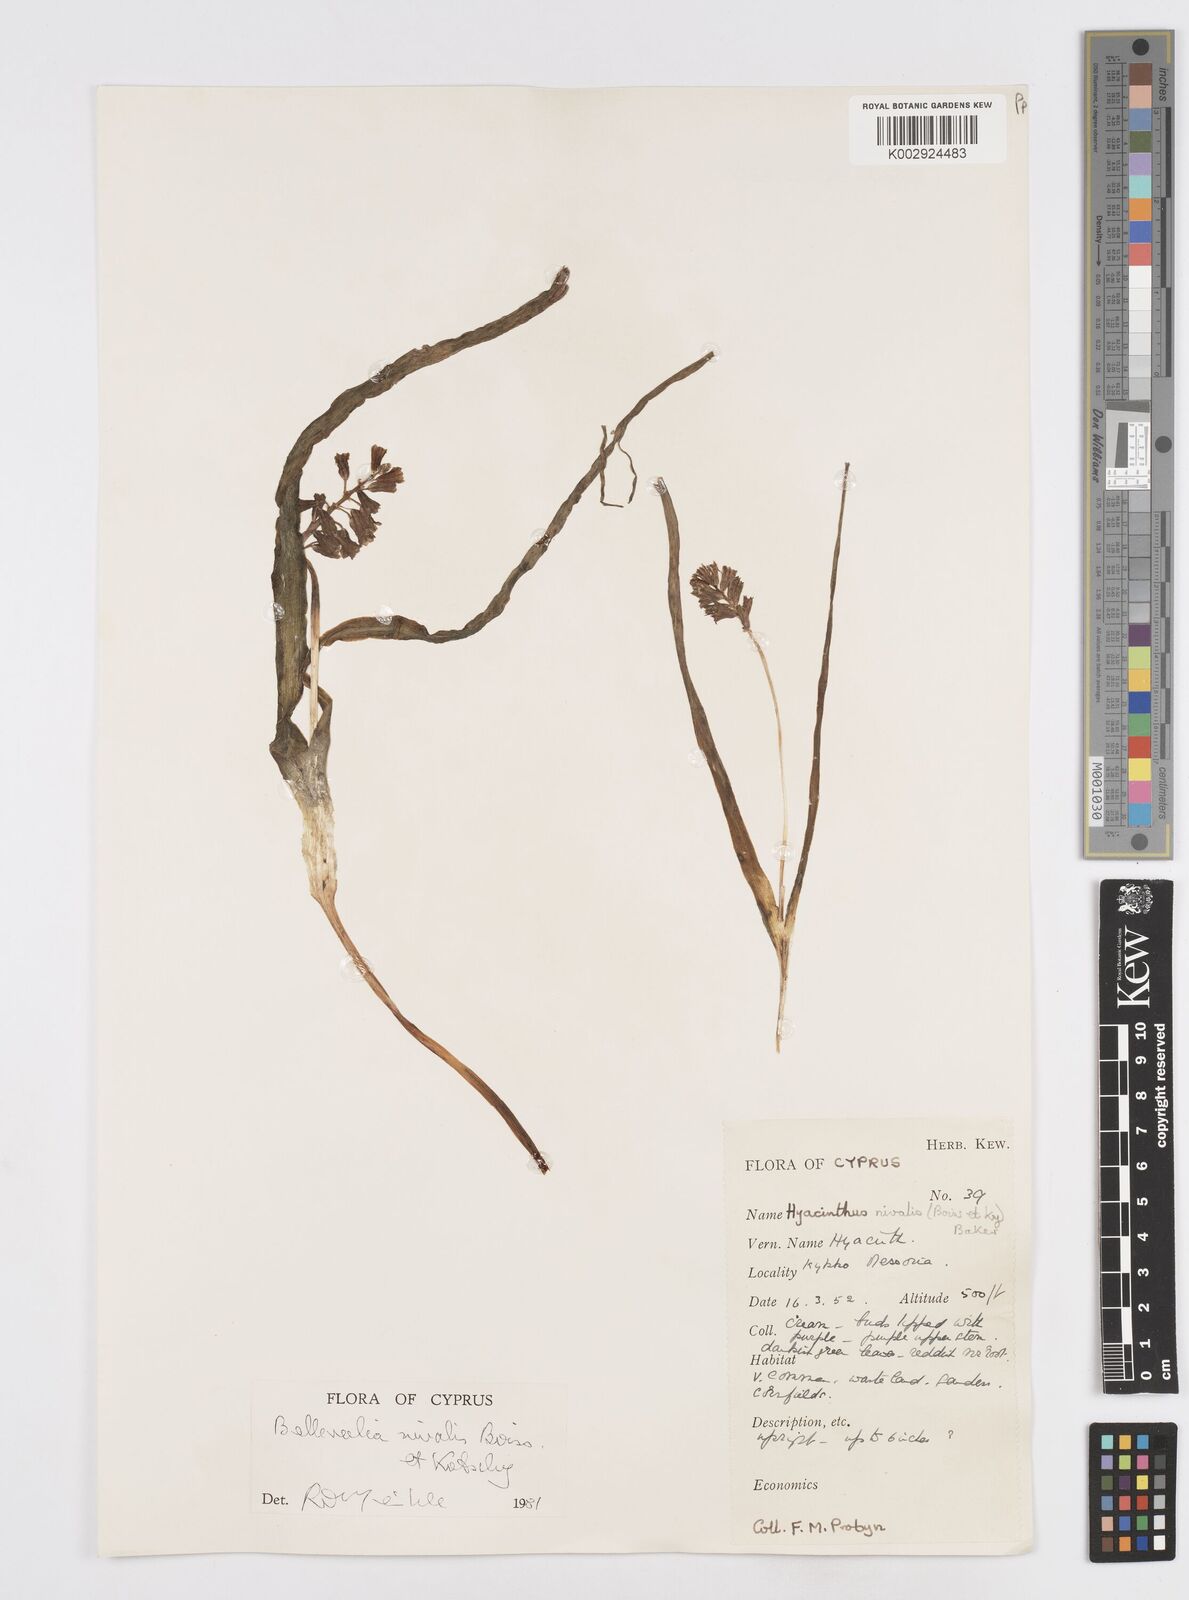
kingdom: Plantae
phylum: Tracheophyta
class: Liliopsida
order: Asparagales
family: Asparagaceae
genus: Bellevalia
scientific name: Bellevalia nivalis
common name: Snow bellevalia
